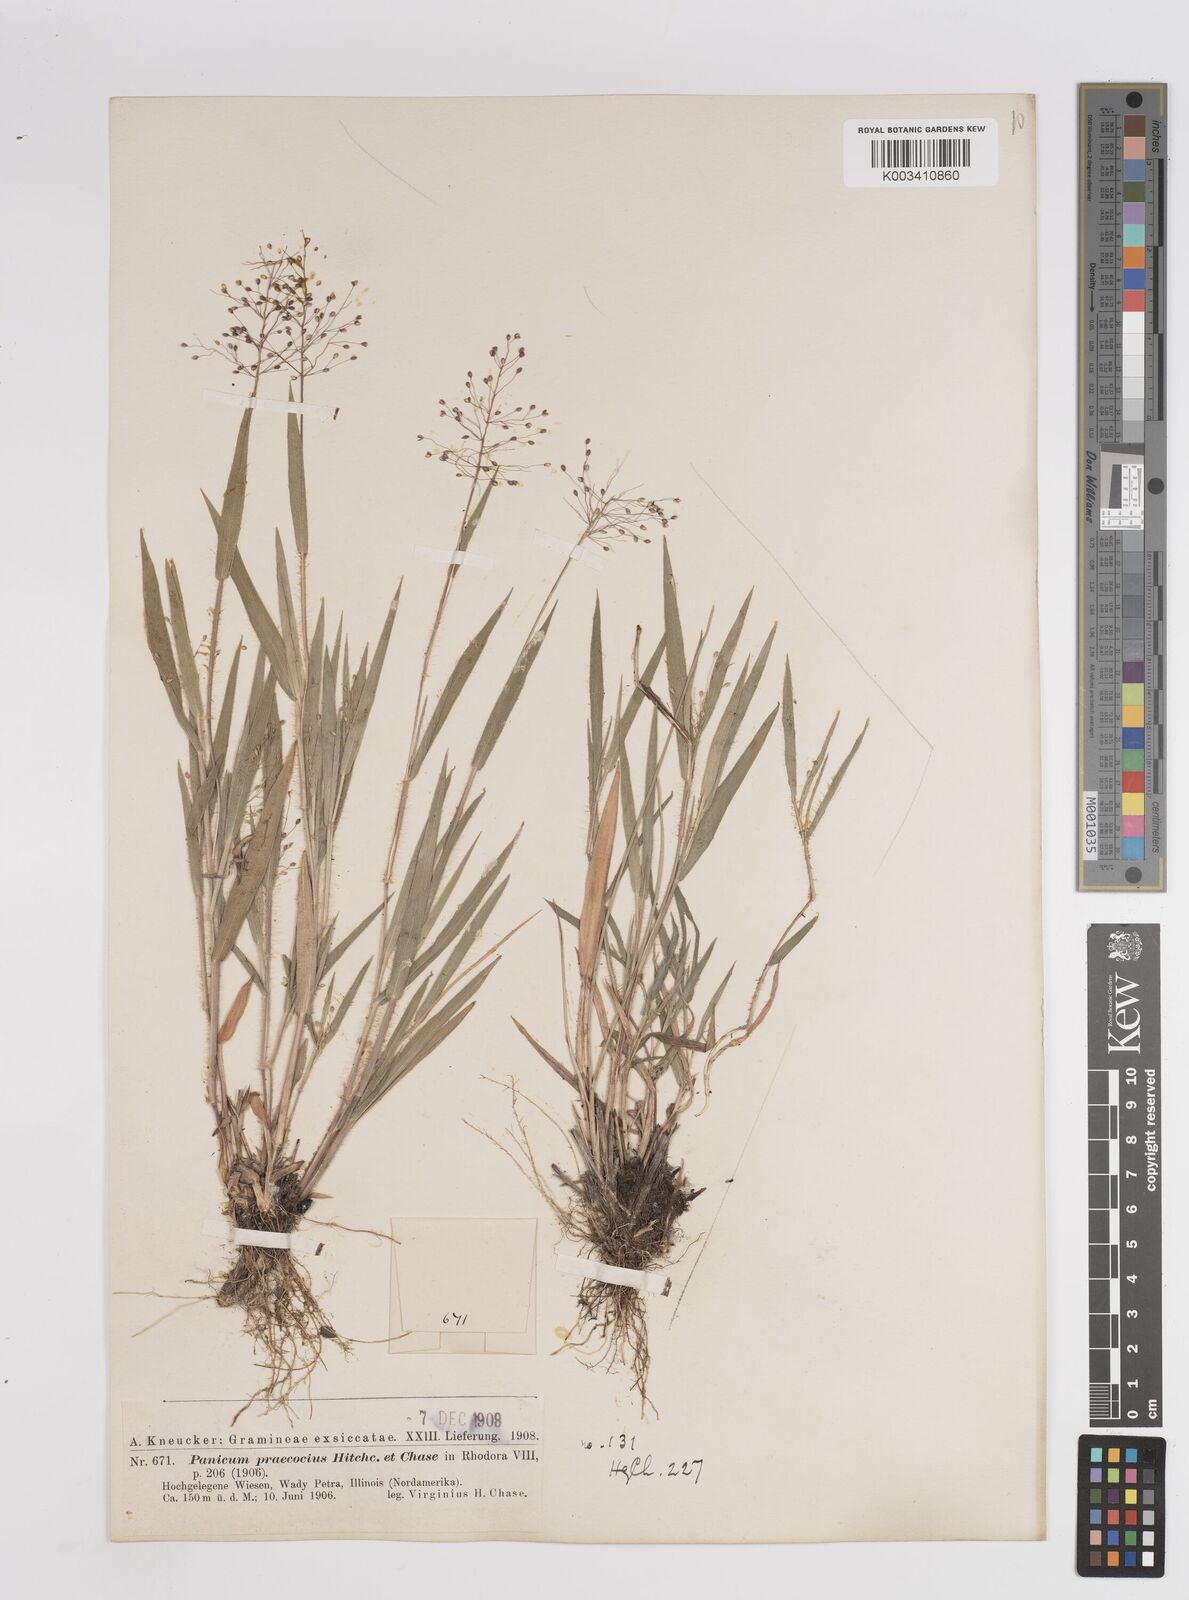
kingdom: Plantae
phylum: Tracheophyta
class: Liliopsida
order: Poales
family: Poaceae
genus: Dichanthelium
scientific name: Dichanthelium praecocius
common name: Early-branching panicgrass
